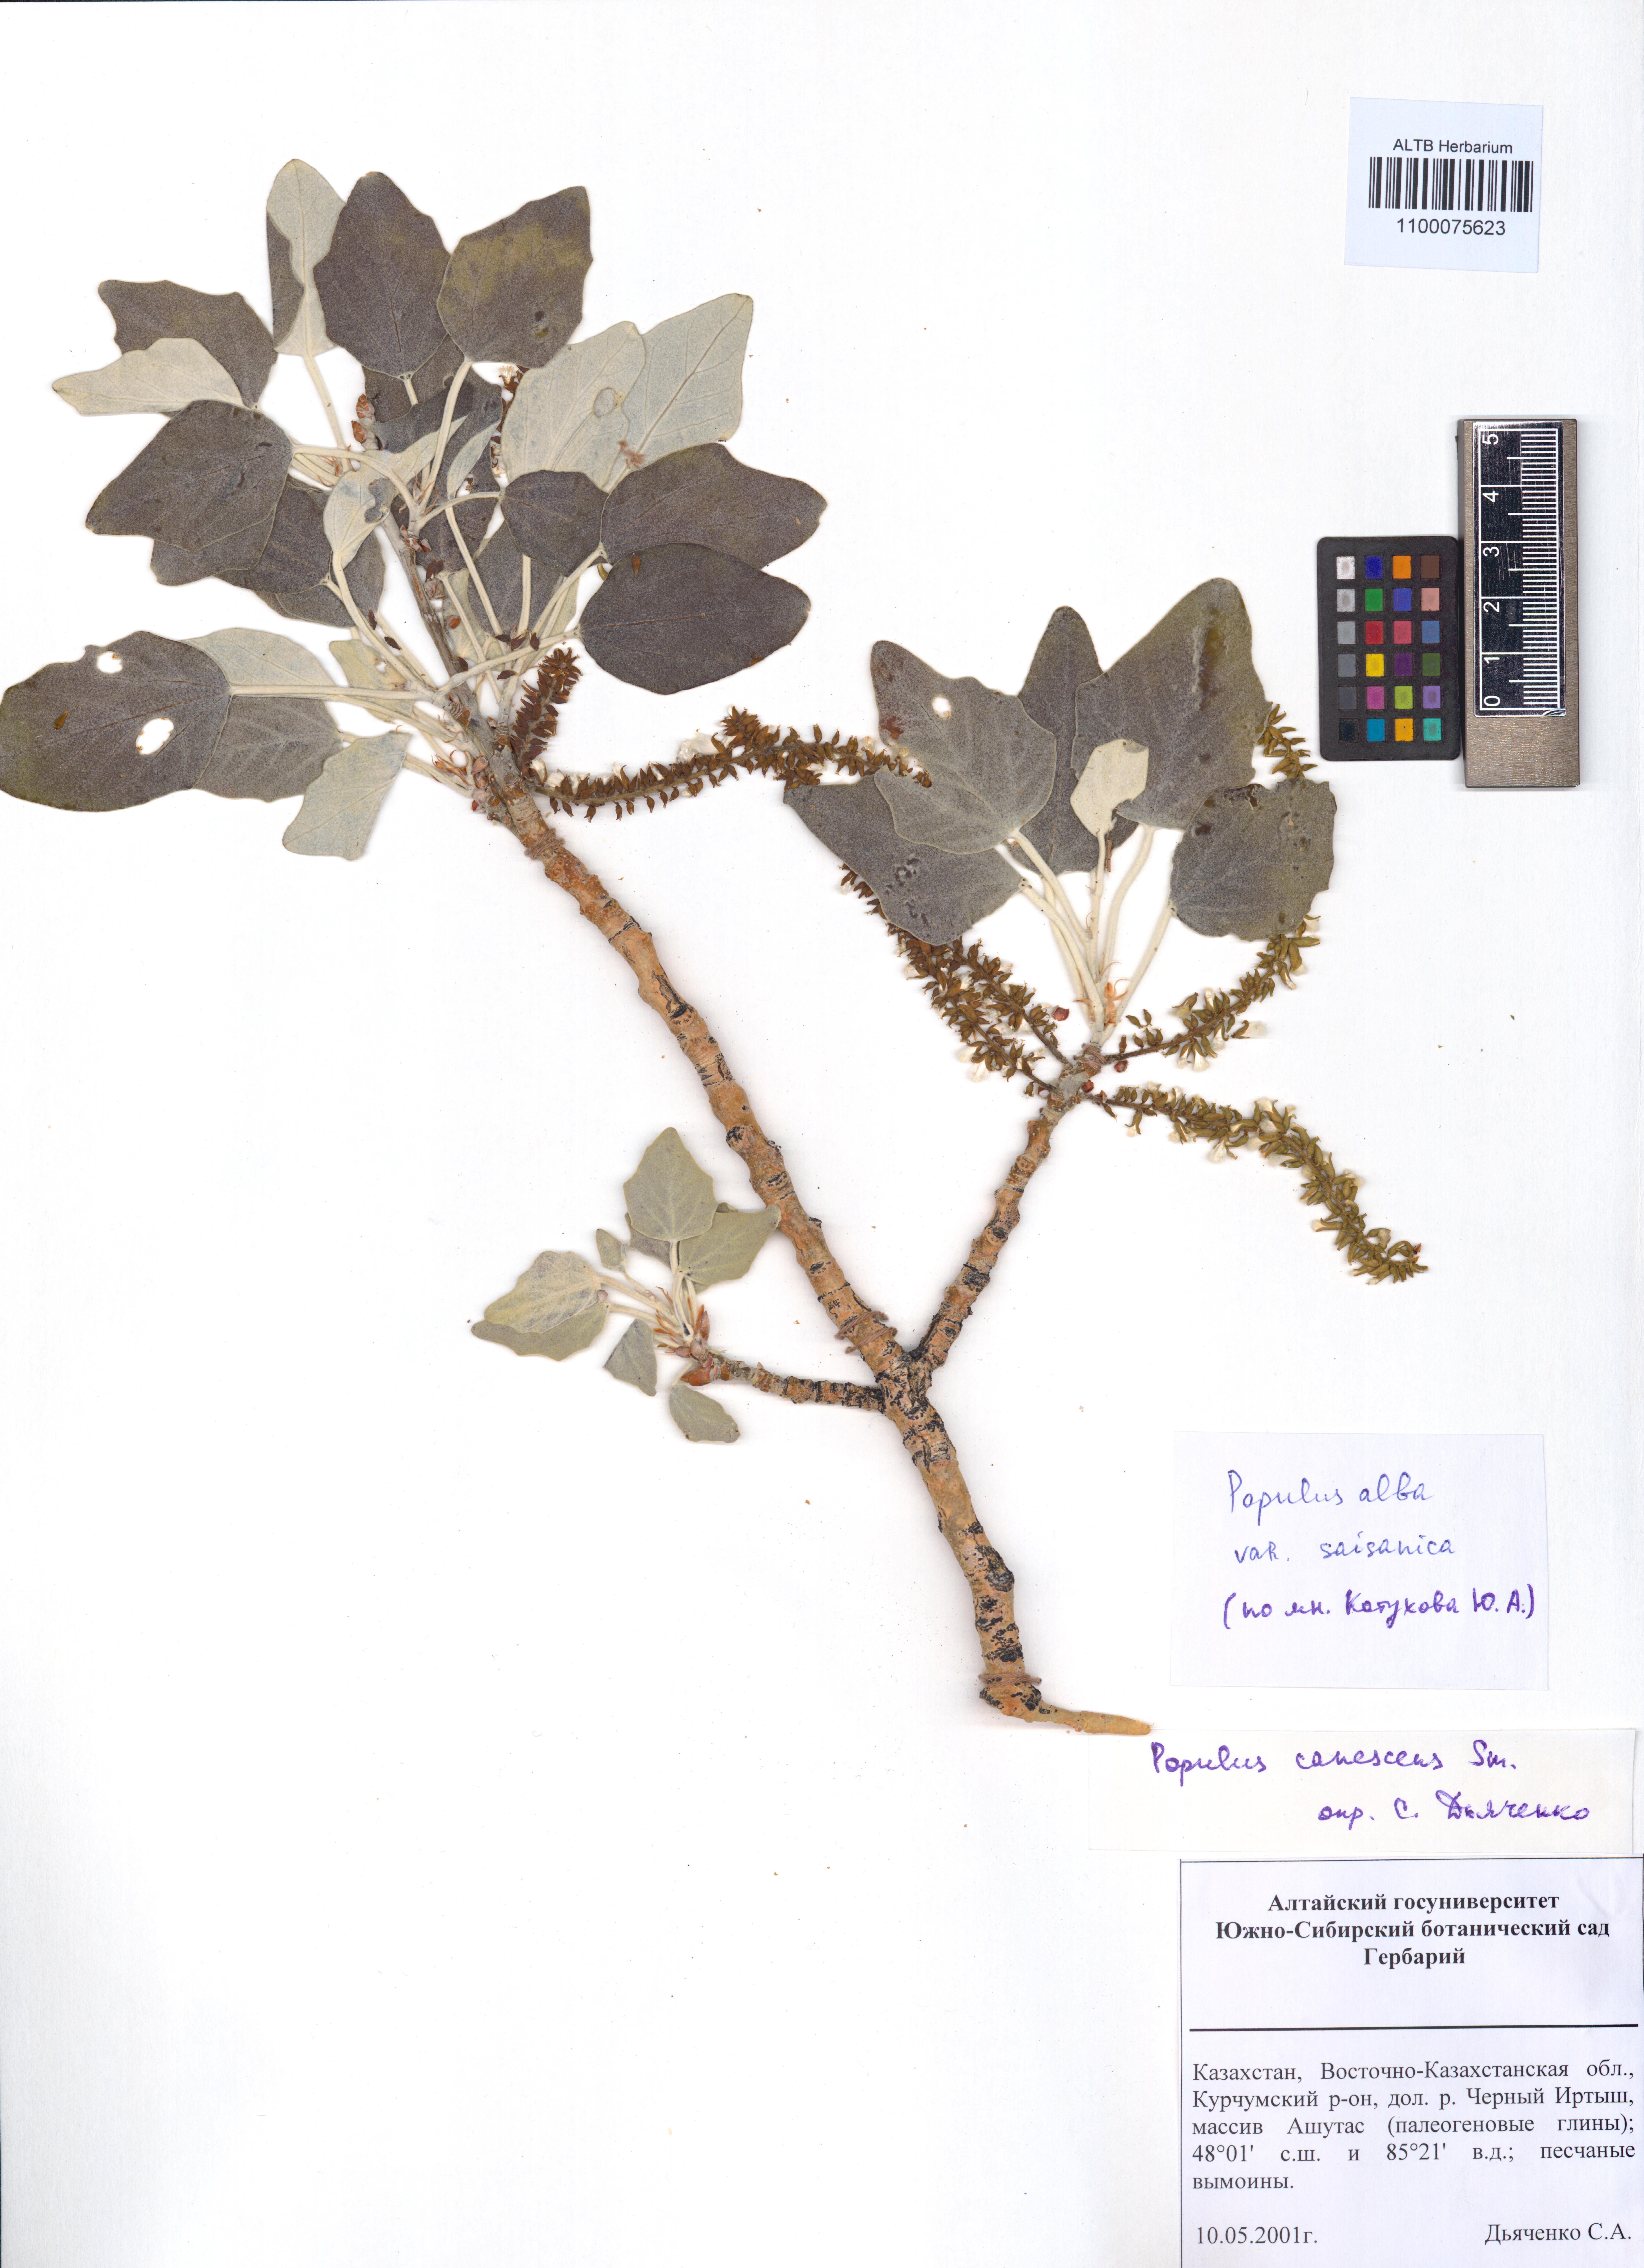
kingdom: Plantae
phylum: Tracheophyta
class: Magnoliopsida
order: Malpighiales
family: Salicaceae
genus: Populus
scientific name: Populus alba
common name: White poplar
